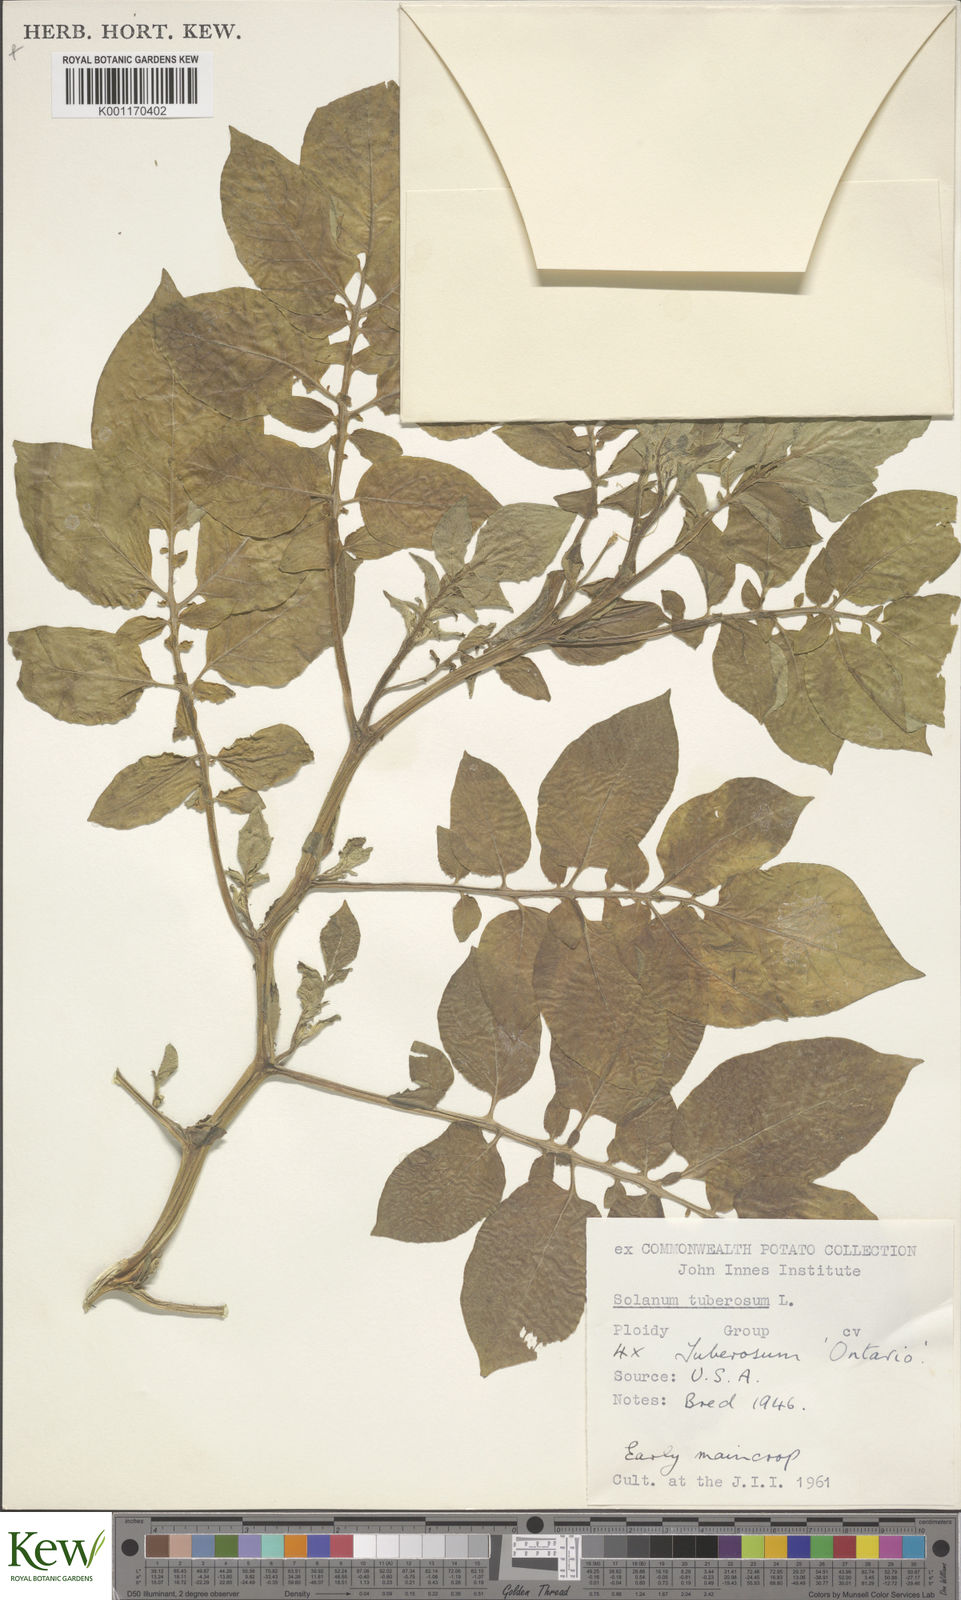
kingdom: Plantae
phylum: Tracheophyta
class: Magnoliopsida
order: Solanales
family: Solanaceae
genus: Solanum
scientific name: Solanum tuberosum
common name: Potato
